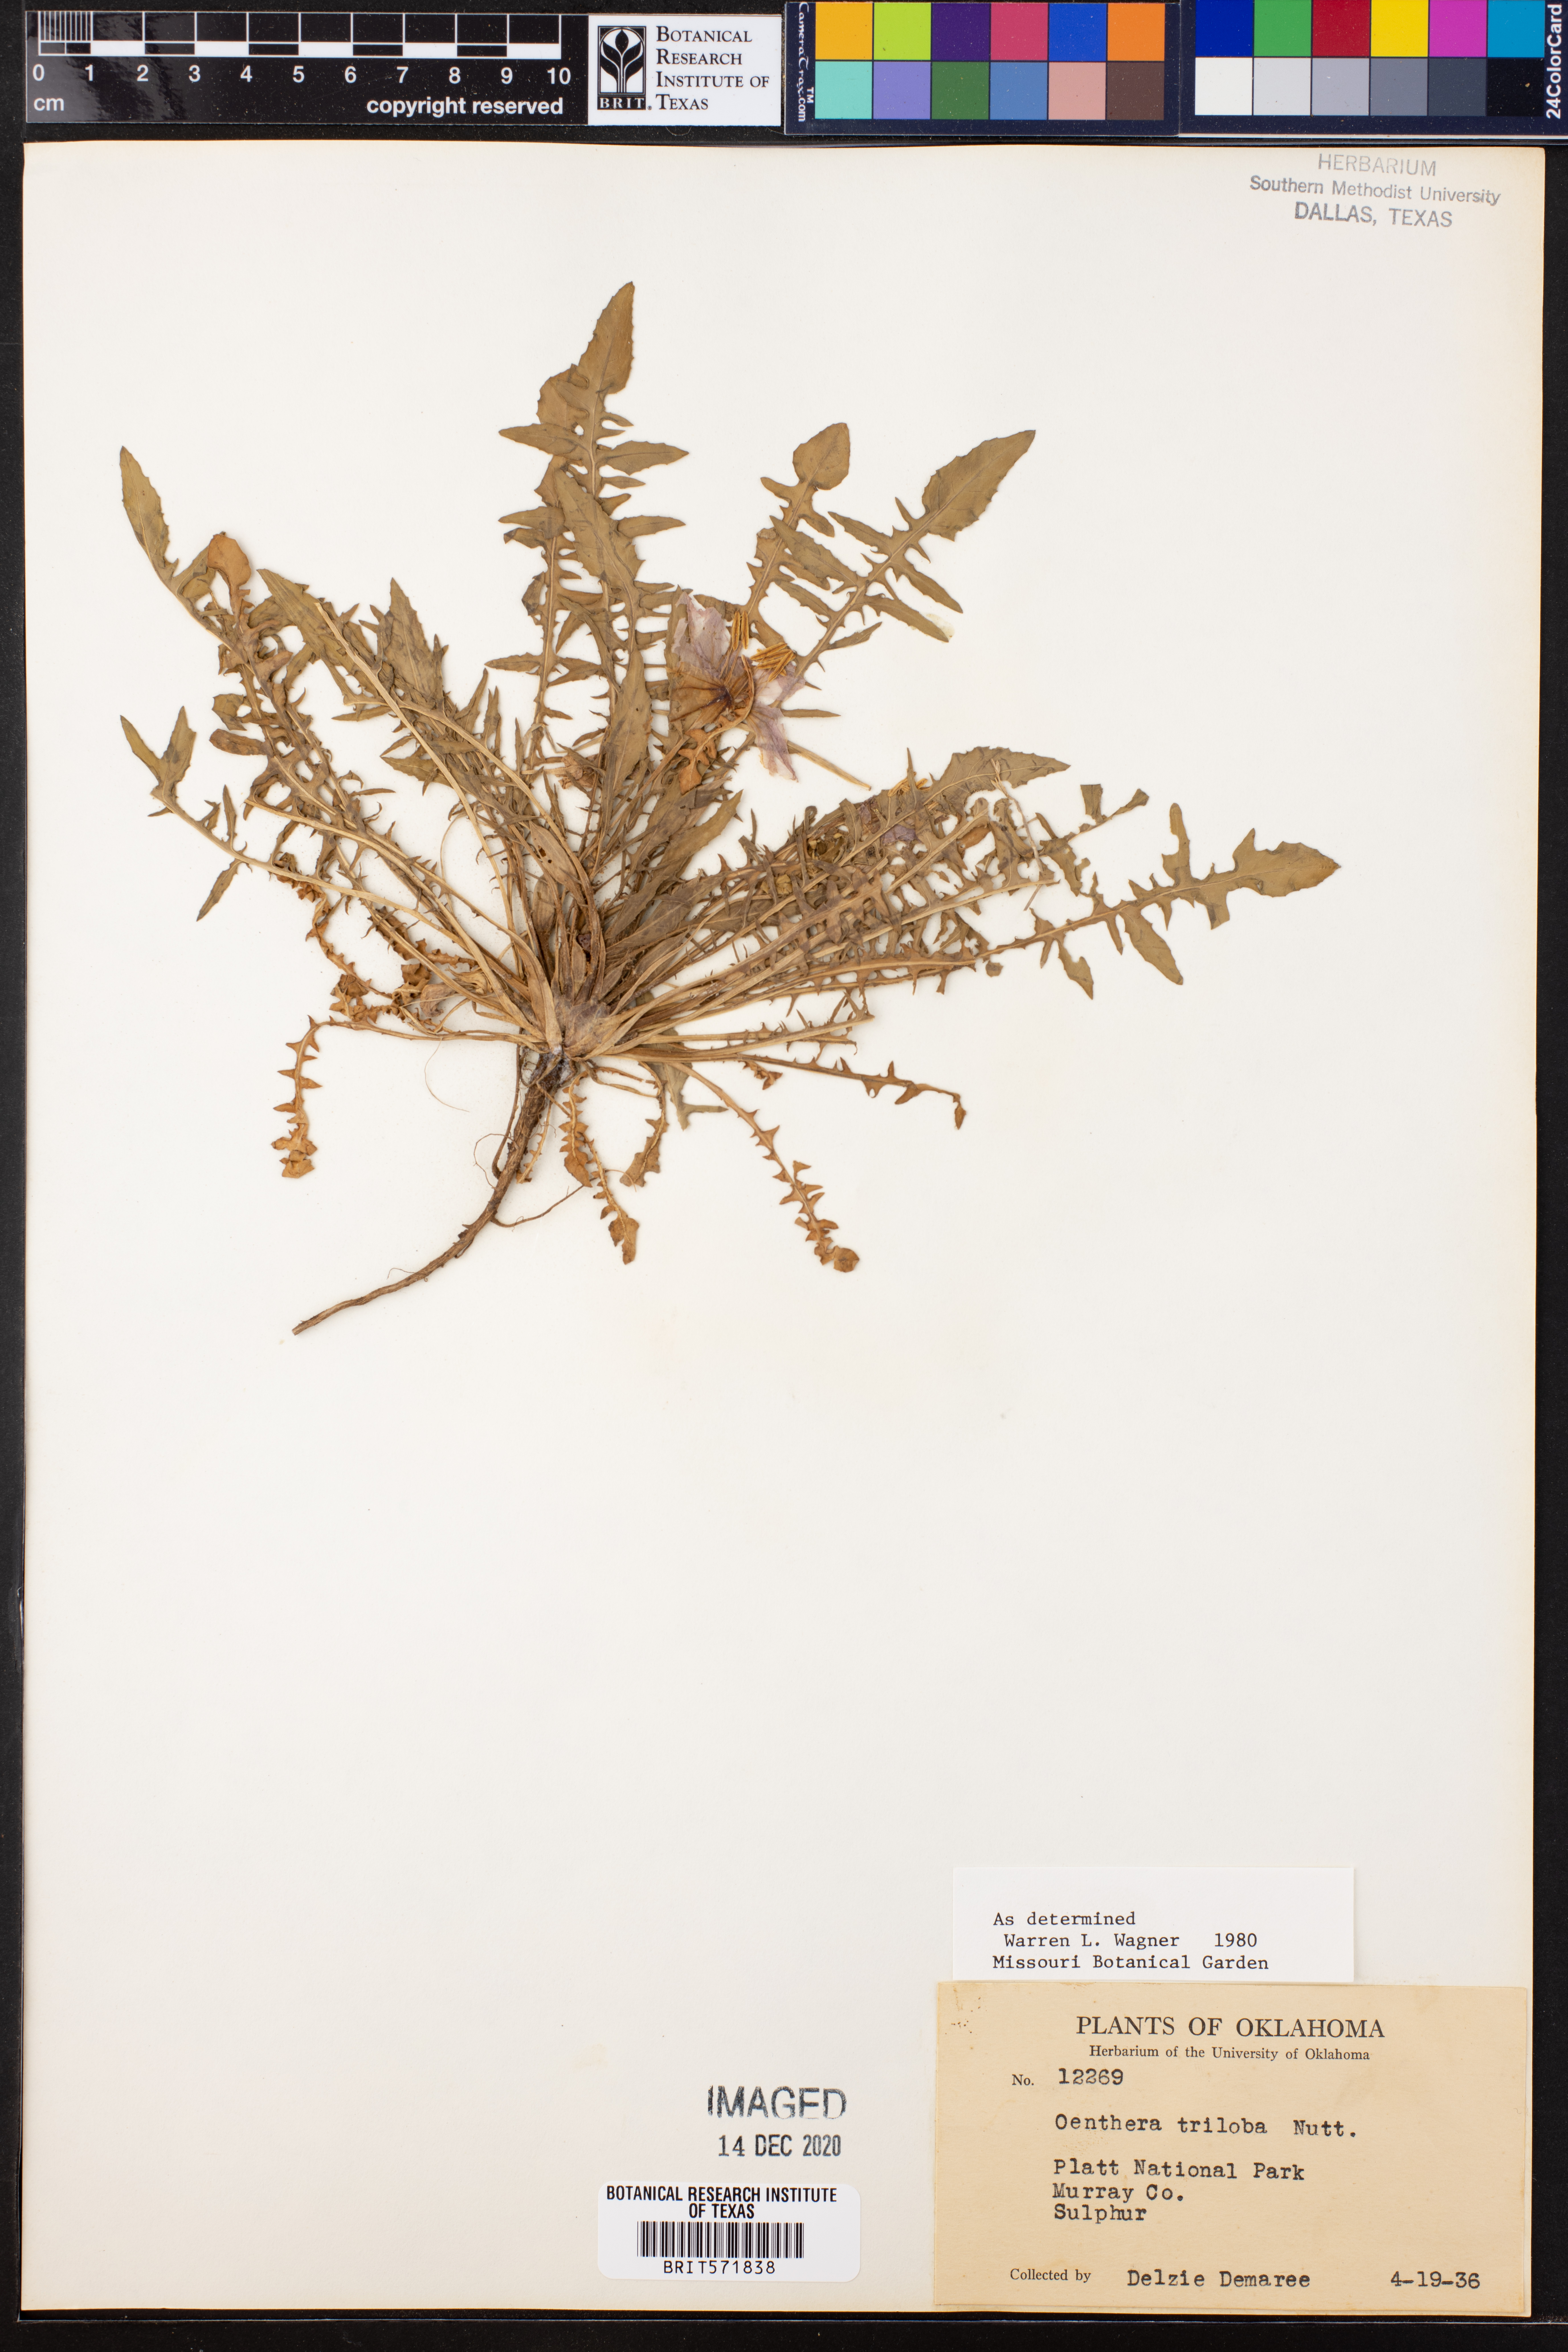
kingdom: Plantae
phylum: Tracheophyta
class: Magnoliopsida
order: Myrtales
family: Onagraceae
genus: Oenothera
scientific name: Oenothera triloba
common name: Sessile evening-primrose
